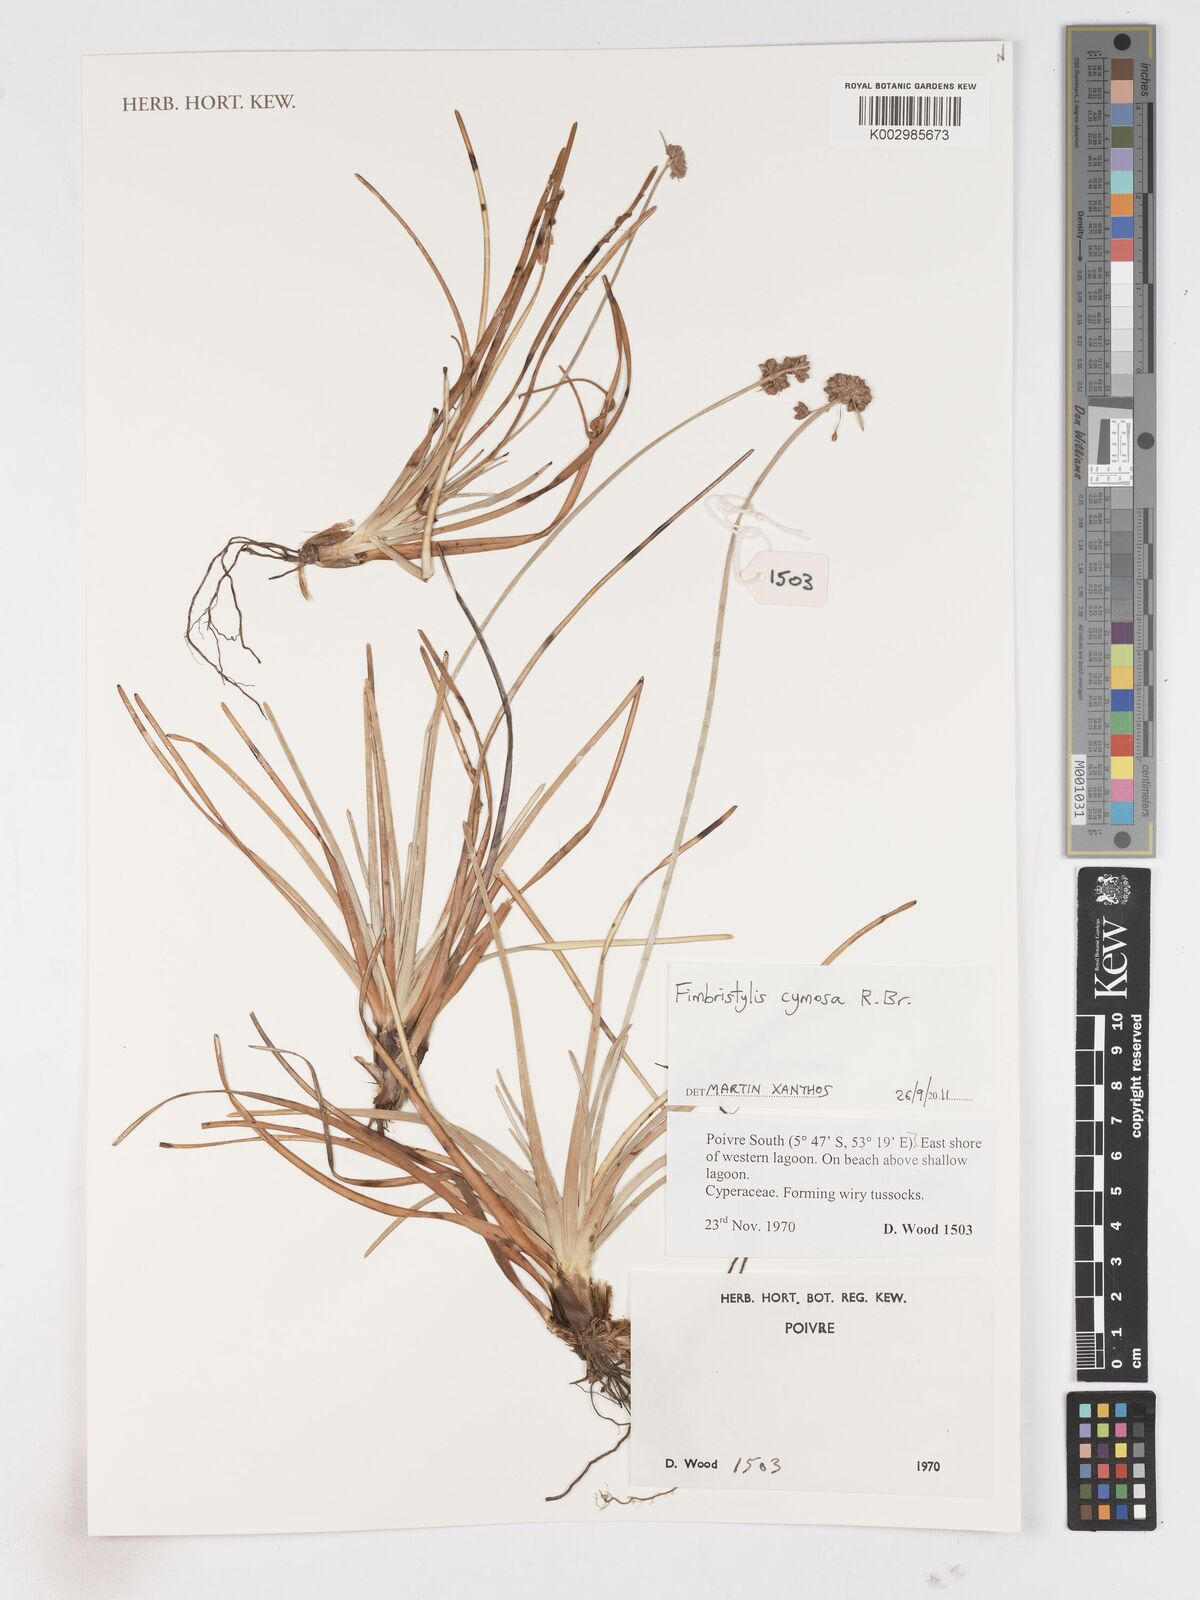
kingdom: Plantae
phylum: Tracheophyta
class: Liliopsida
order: Poales
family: Cyperaceae
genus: Fimbristylis
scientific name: Fimbristylis cymosa
